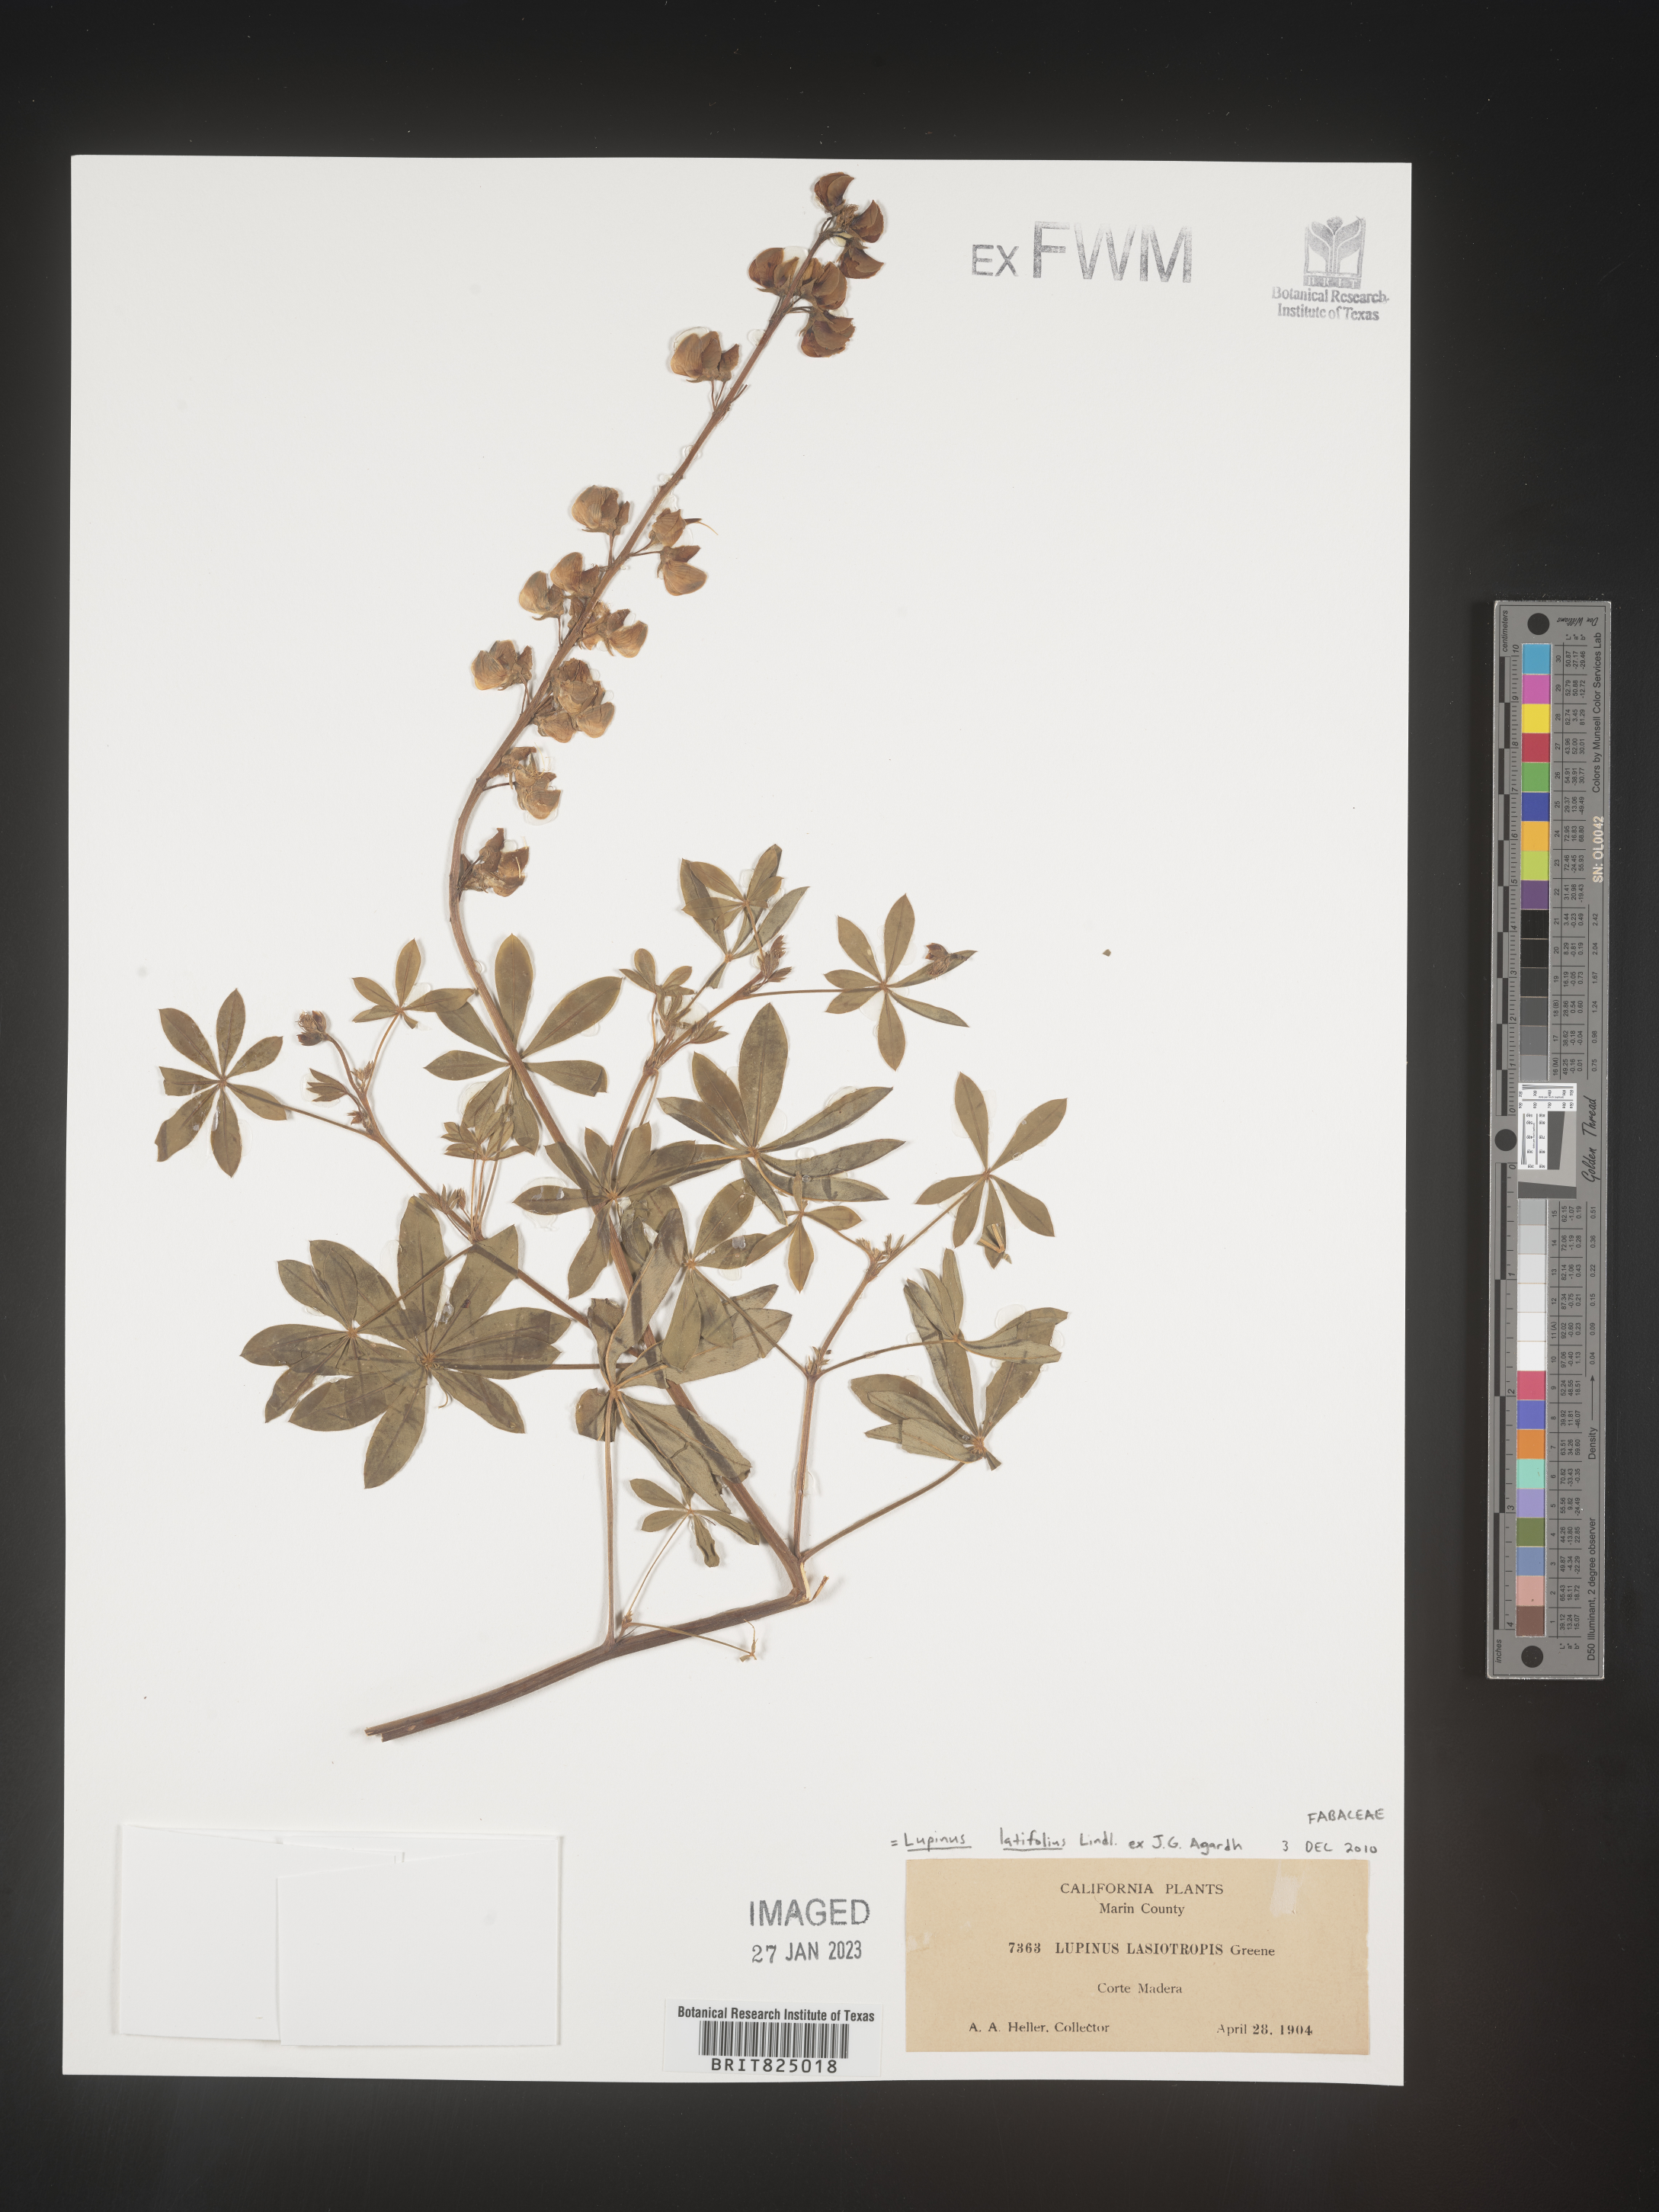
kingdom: Plantae
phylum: Tracheophyta
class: Magnoliopsida
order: Fabales
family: Fabaceae
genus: Lupinus
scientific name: Lupinus
